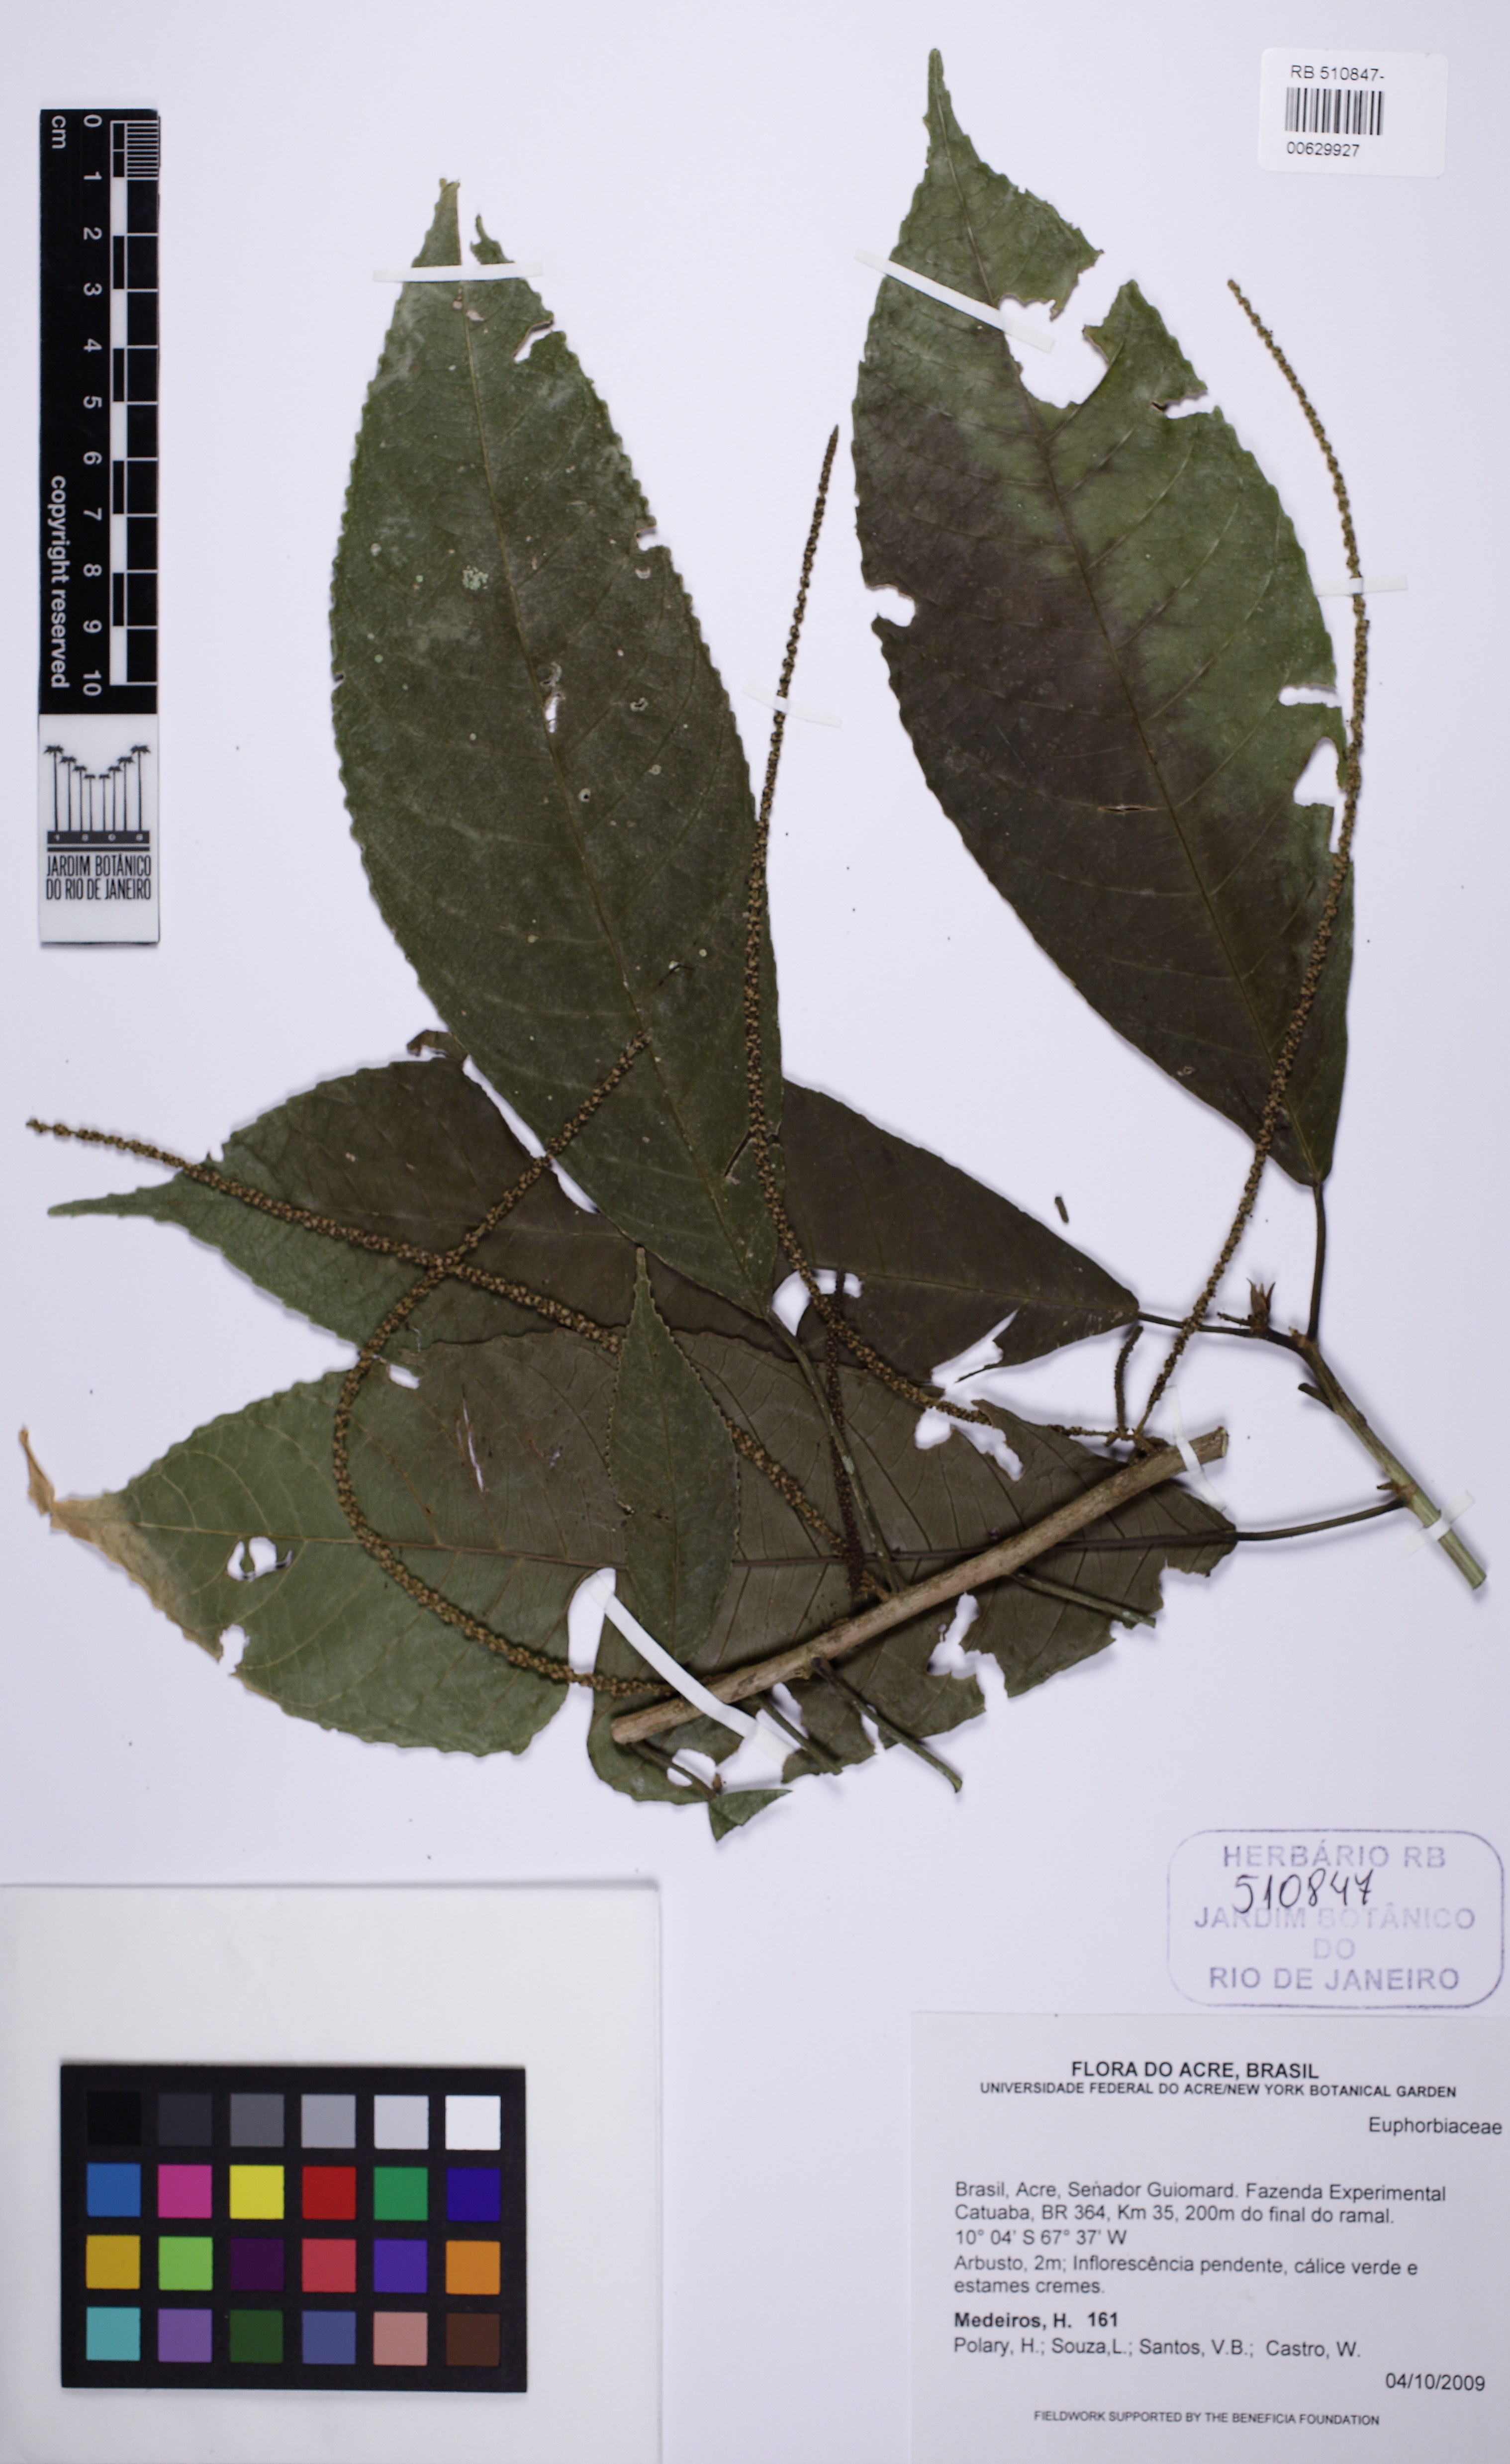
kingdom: Plantae
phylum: Tracheophyta
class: Magnoliopsida
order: Malpighiales
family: Euphorbiaceae
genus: Acalypha
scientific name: Acalypha
